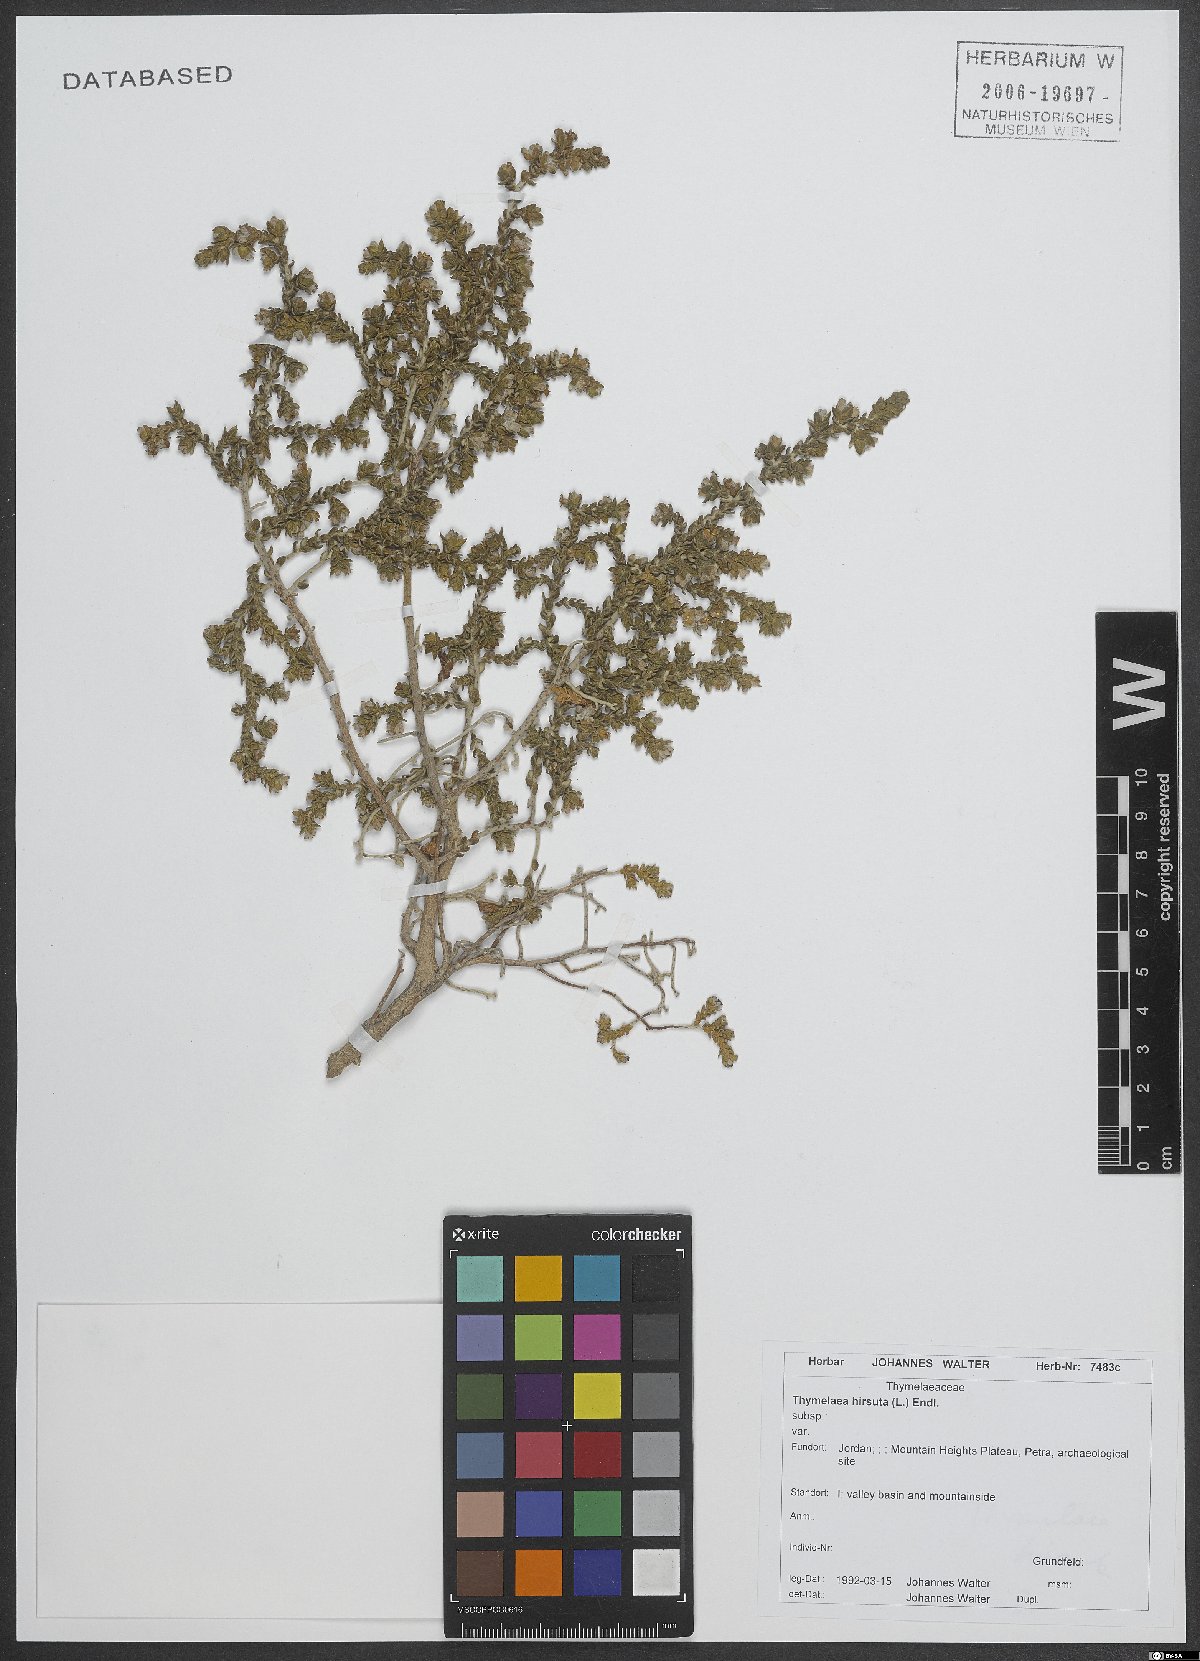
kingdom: Plantae
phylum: Tracheophyta
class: Magnoliopsida
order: Malvales
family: Thymelaeaceae
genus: Thymelaea
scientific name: Thymelaea hirsuta
